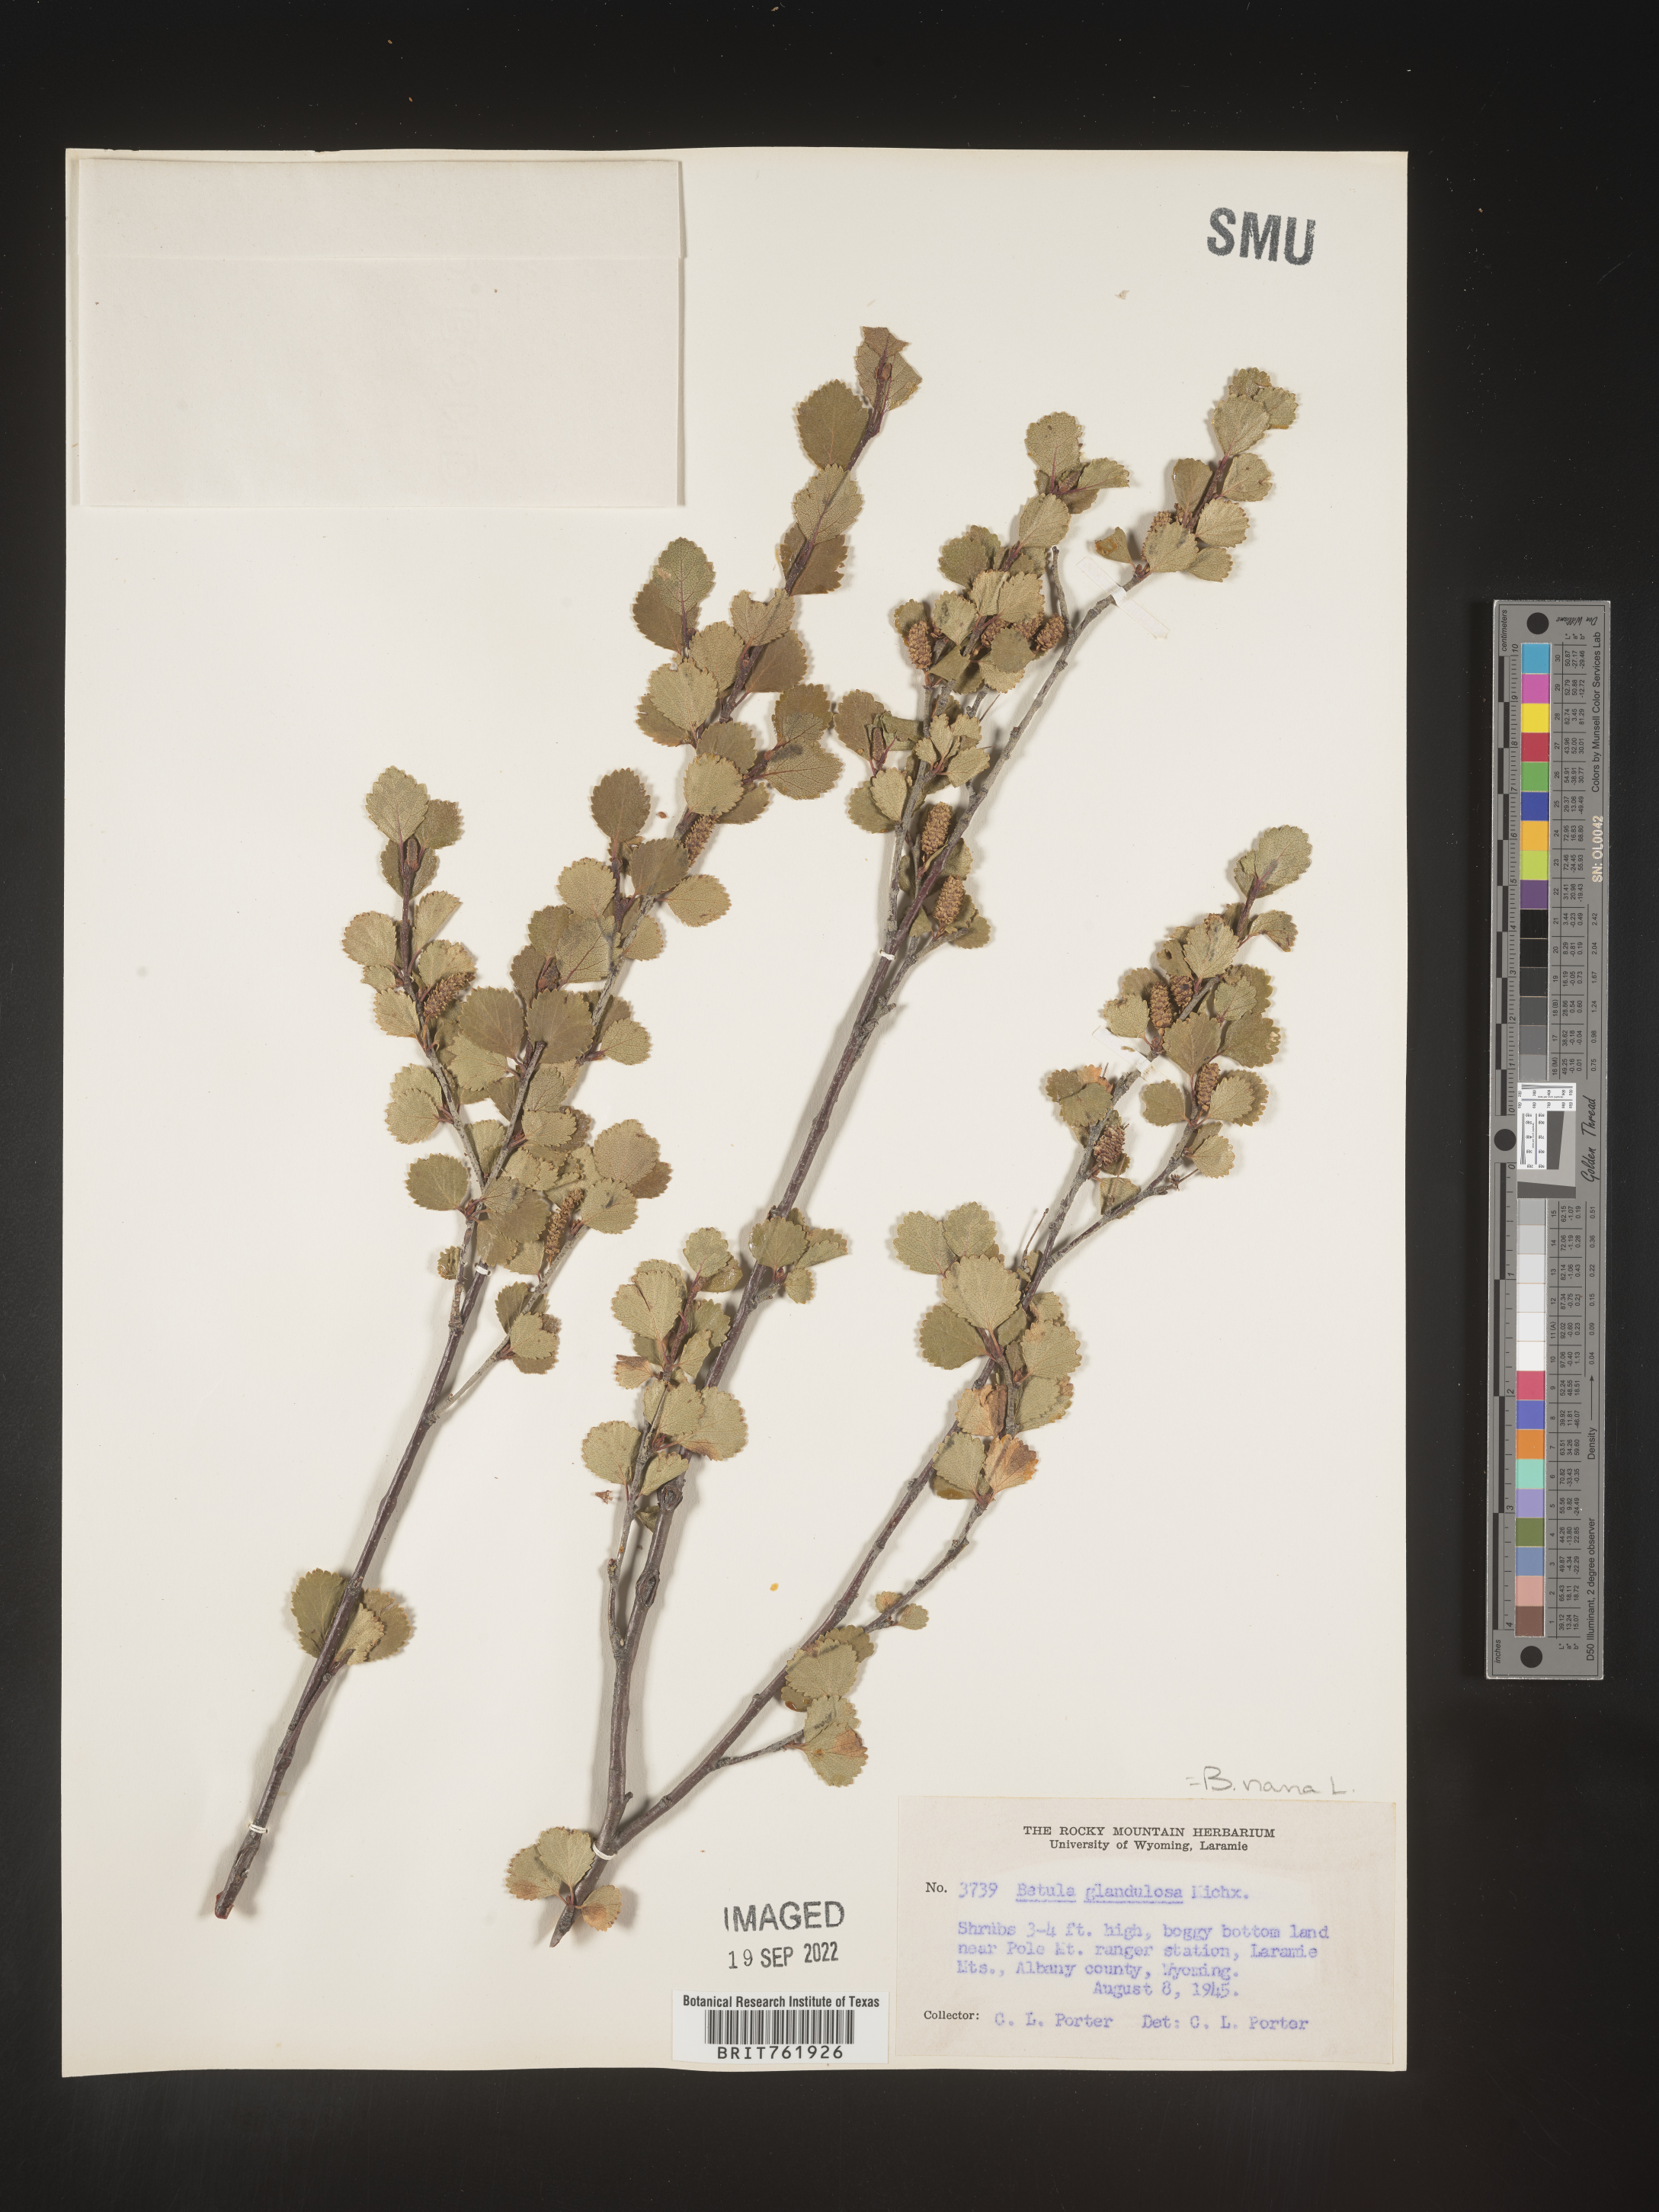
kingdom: Plantae
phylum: Tracheophyta
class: Magnoliopsida
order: Fagales
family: Betulaceae
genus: Betula
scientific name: Betula nana
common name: Arctic dwarf birch
